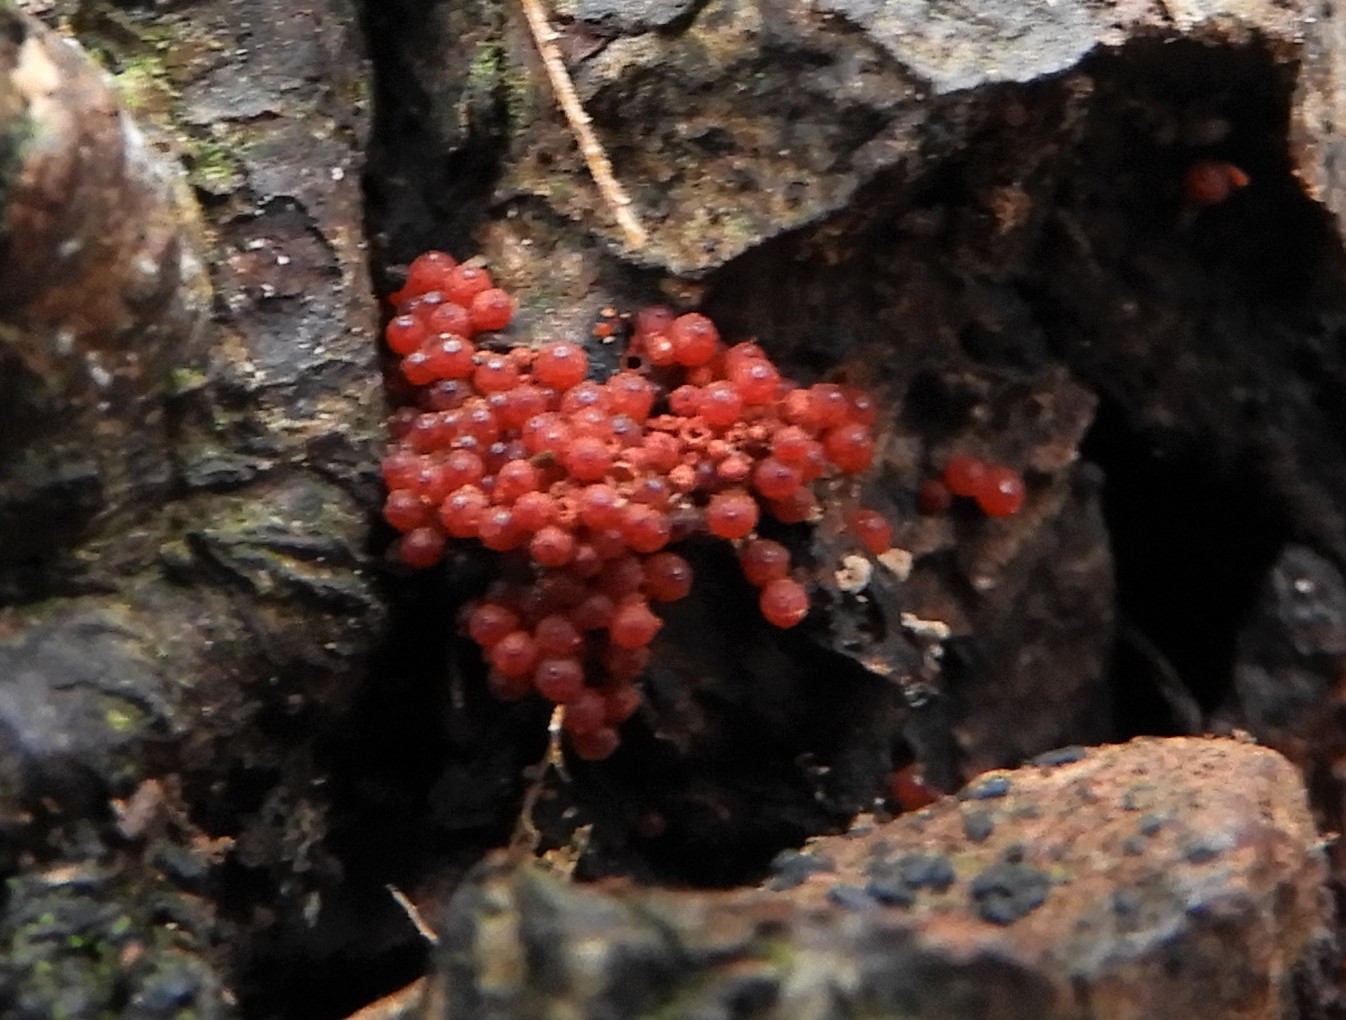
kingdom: Fungi
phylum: Ascomycota
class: Sordariomycetes
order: Hypocreales
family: Nectriaceae
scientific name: Nectriaceae
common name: cinnobersvampfamilien
